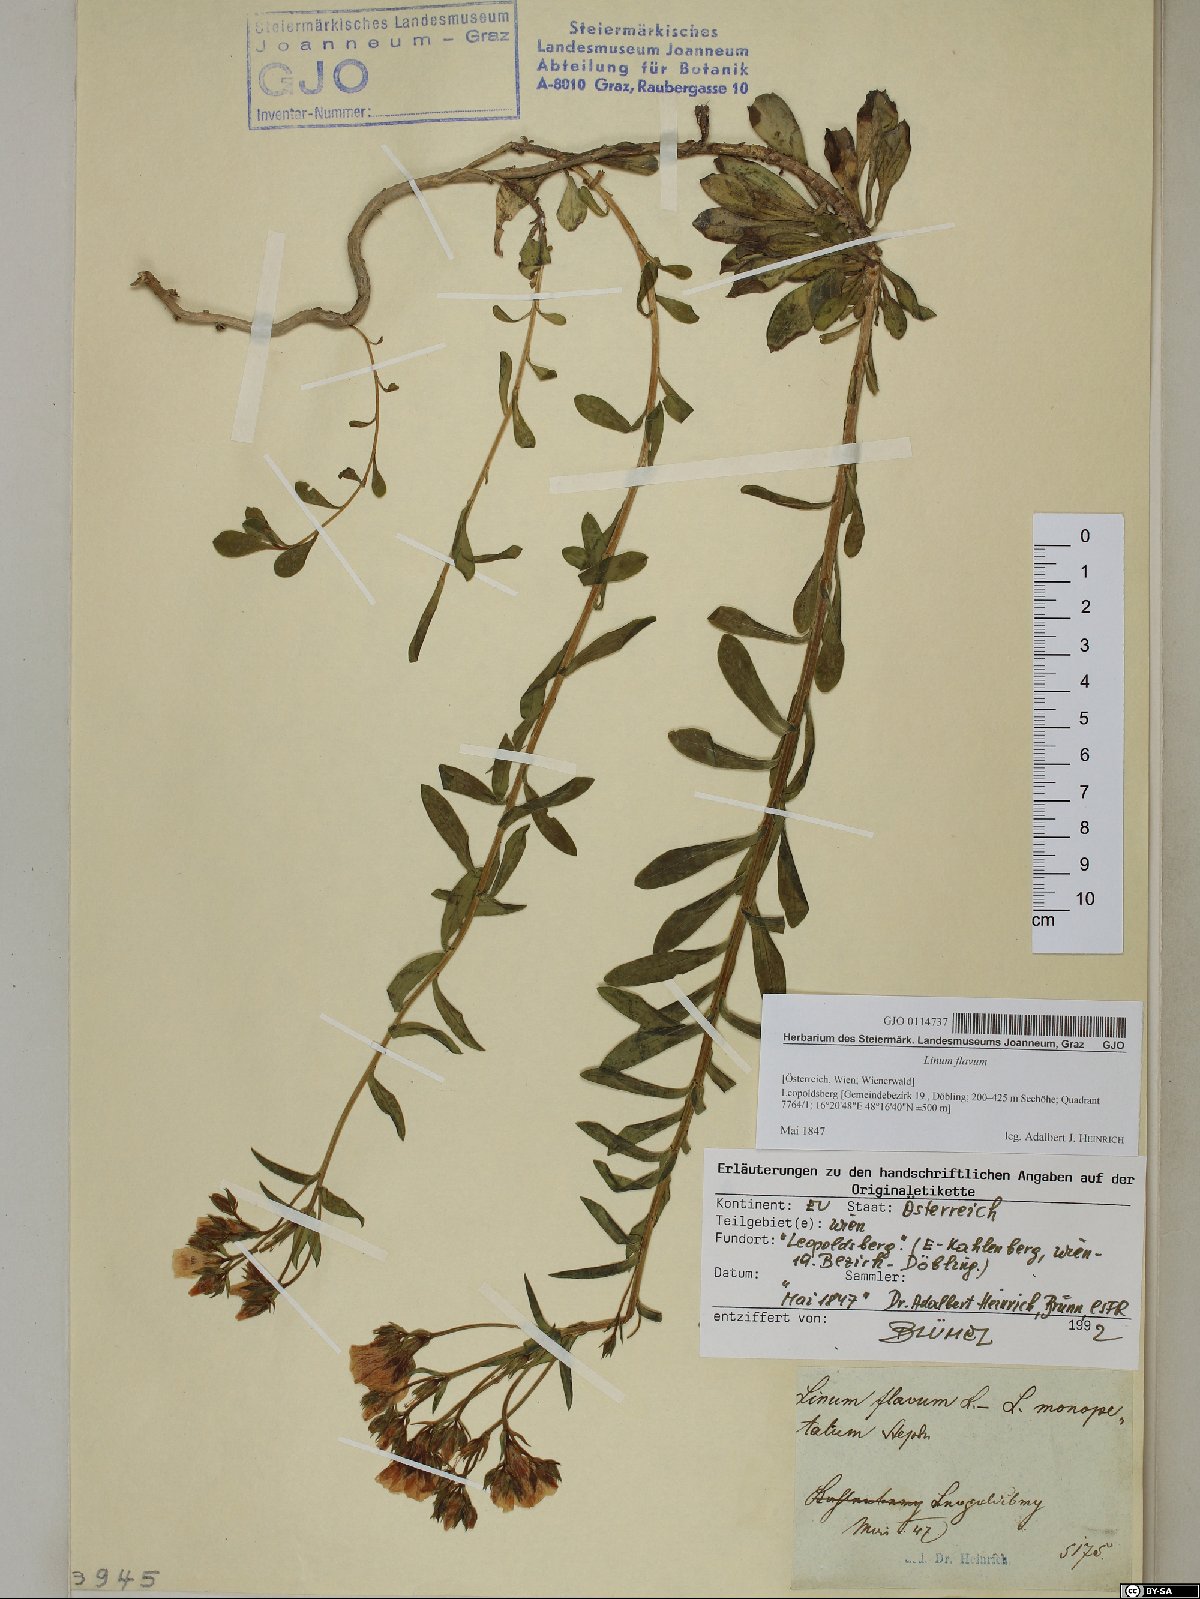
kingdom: Plantae
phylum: Tracheophyta
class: Magnoliopsida
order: Malpighiales
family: Linaceae
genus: Linum
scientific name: Linum flavum
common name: Yellow flax
